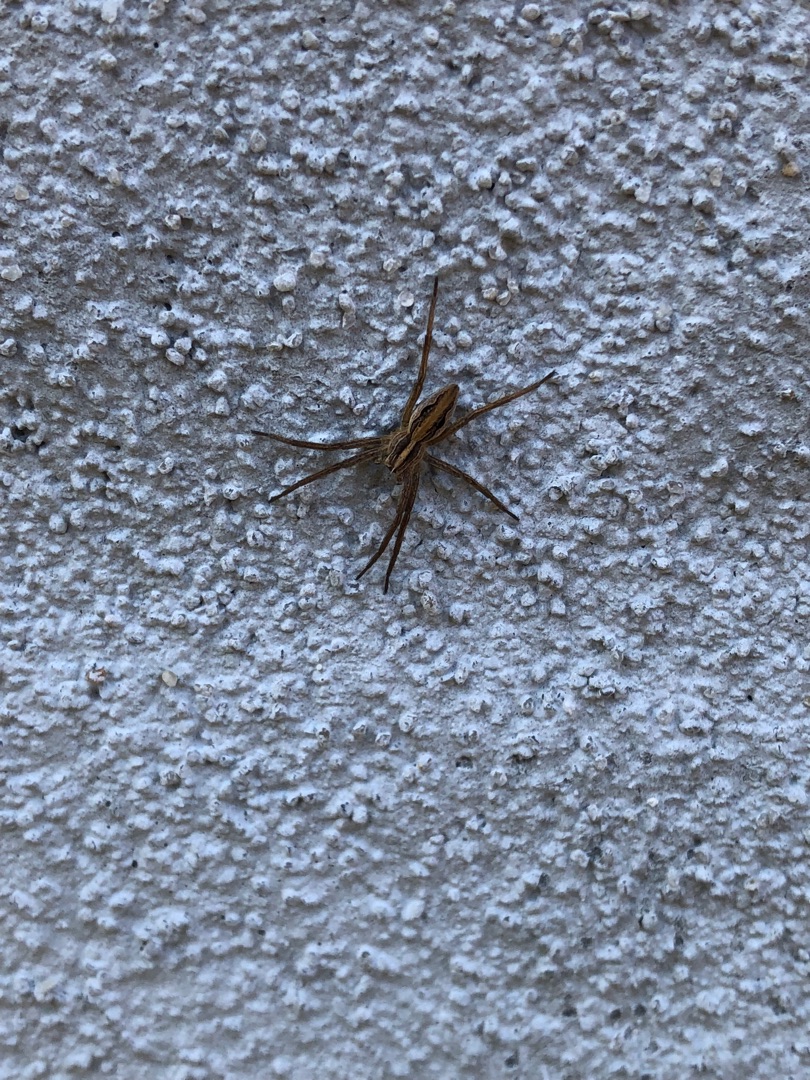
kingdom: Animalia
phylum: Arthropoda
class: Arachnida
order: Araneae
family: Pisauridae
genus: Pisaura
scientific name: Pisaura mirabilis
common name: Almindelig rovedderkop
